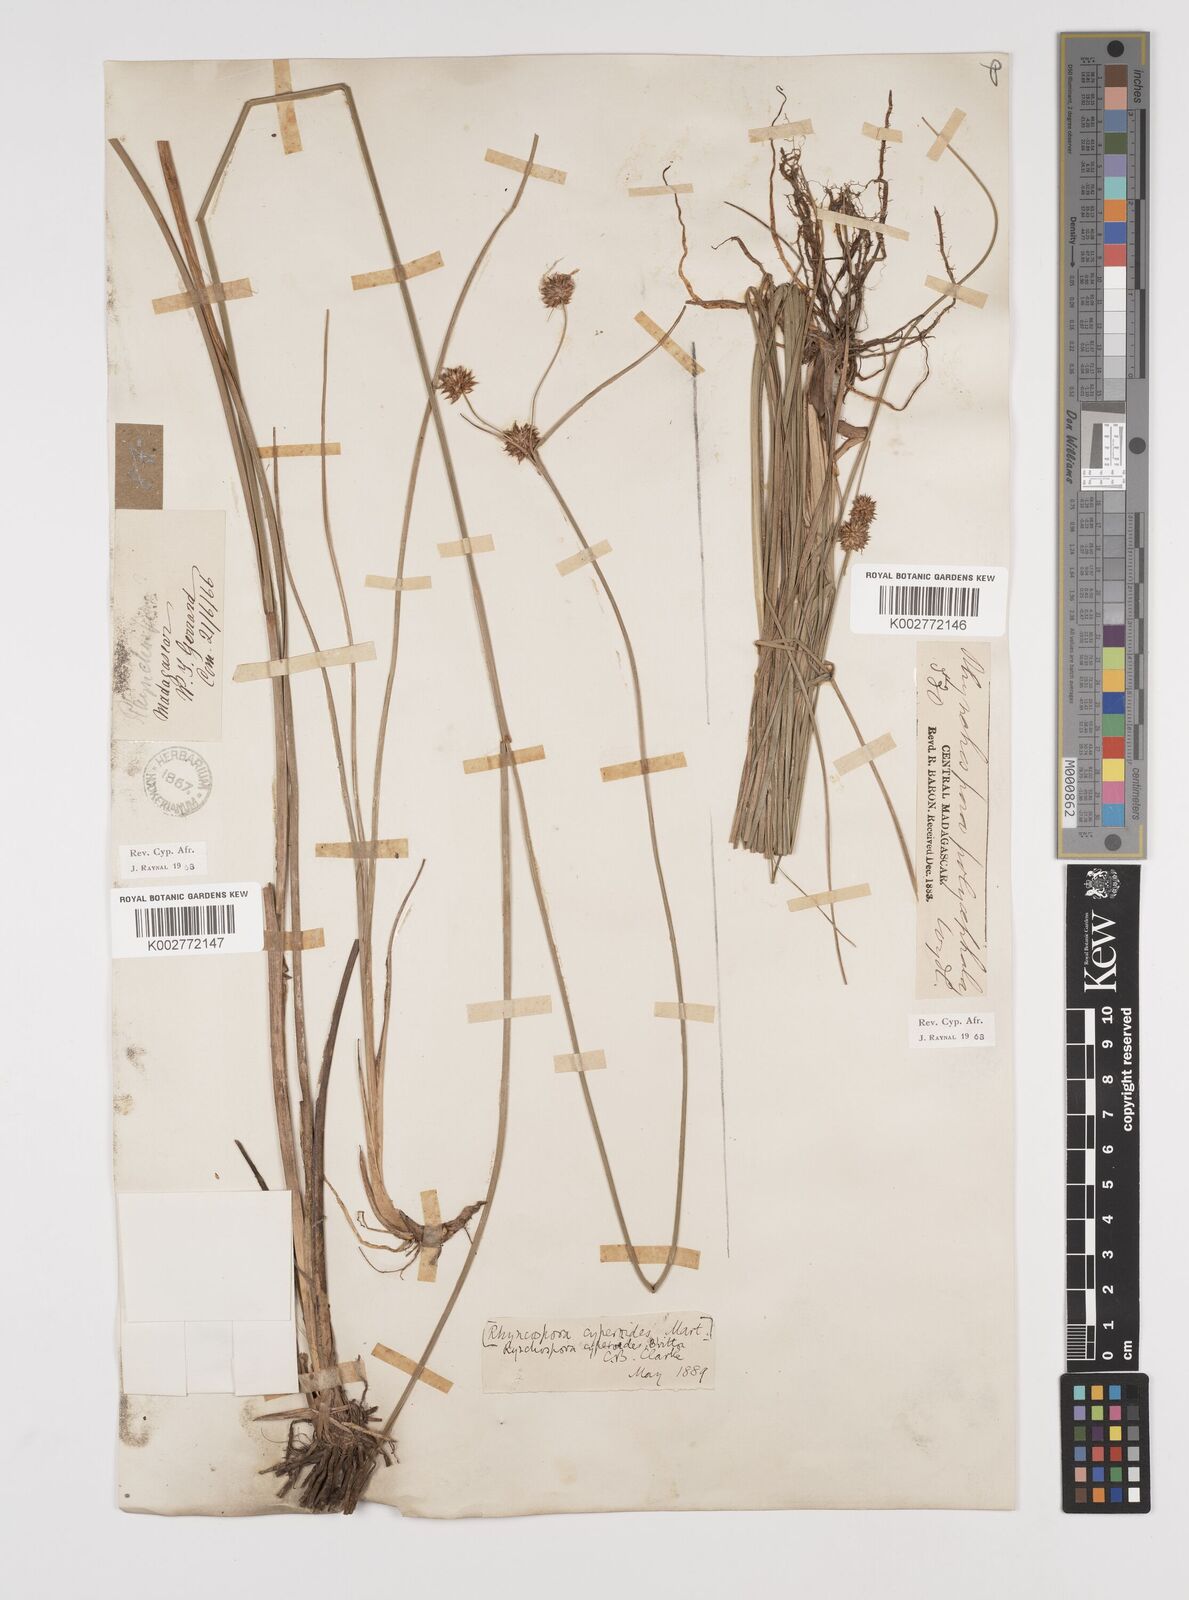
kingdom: Plantae
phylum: Tracheophyta
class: Liliopsida
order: Poales
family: Cyperaceae
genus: Rhynchospora
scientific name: Rhynchospora holoschoenoides
